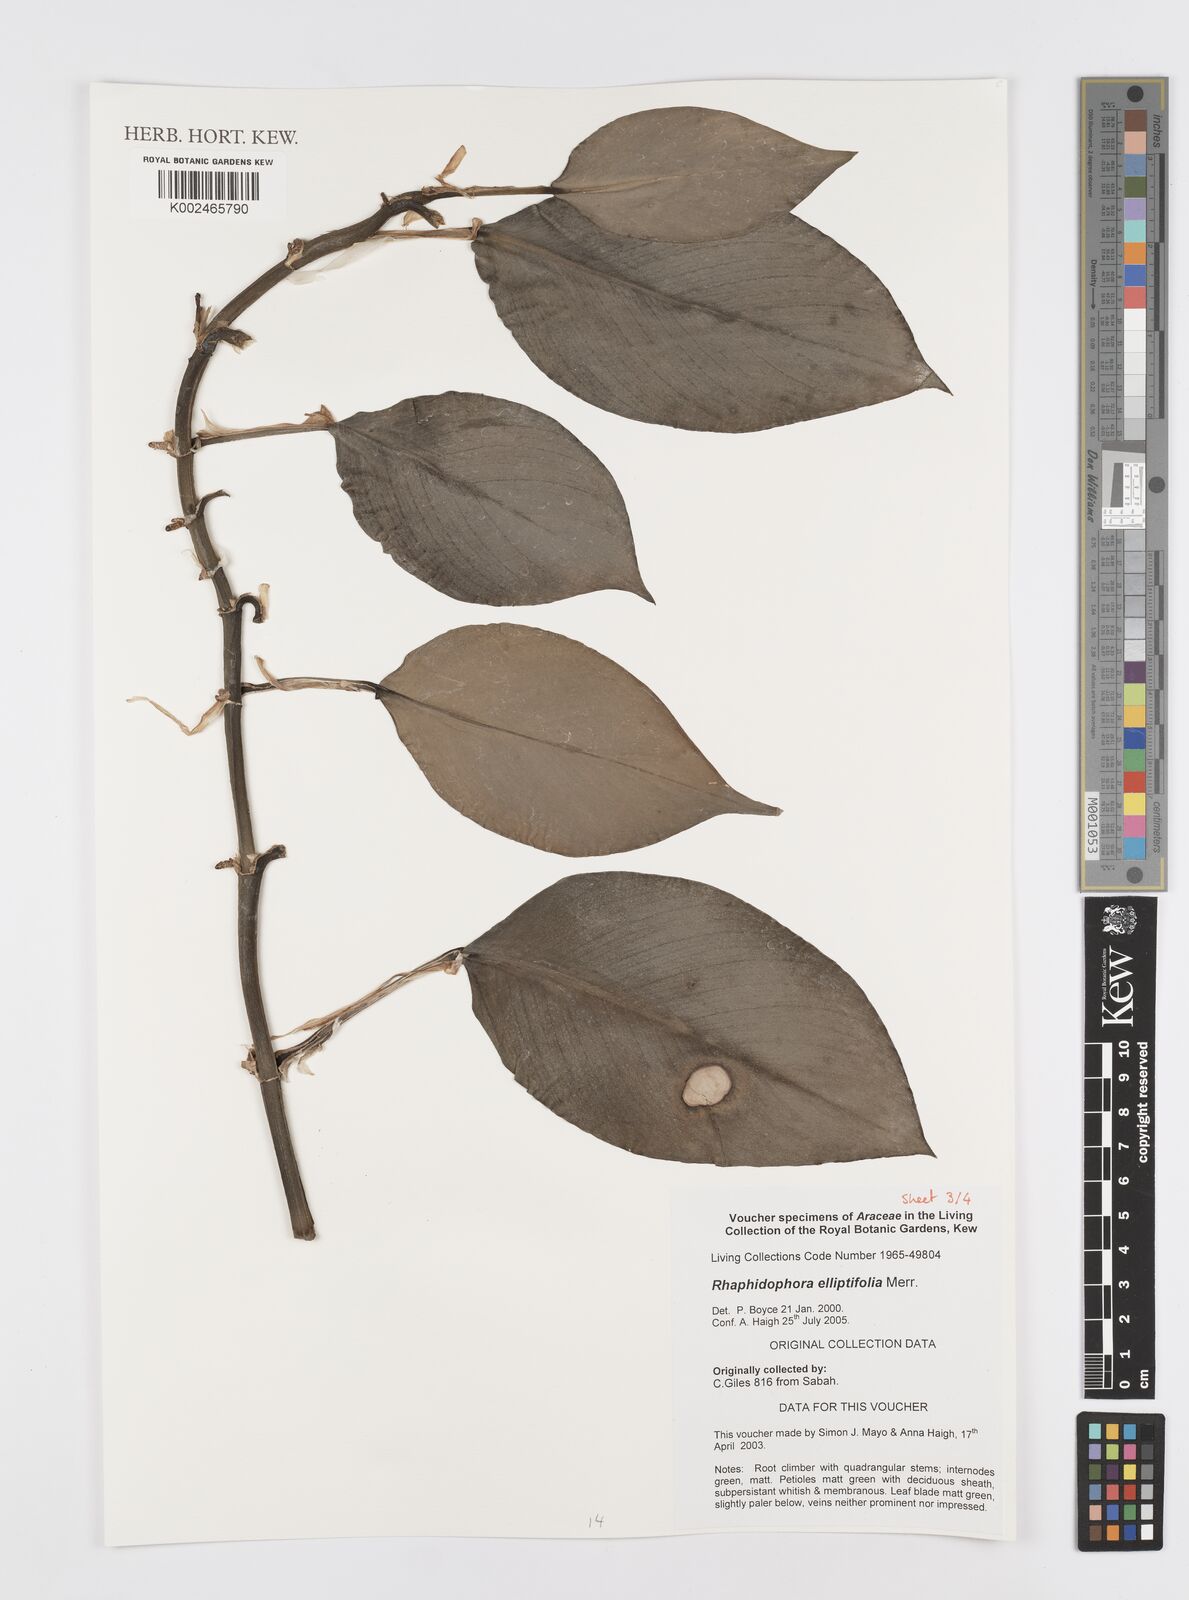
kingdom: Plantae
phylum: Tracheophyta
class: Liliopsida
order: Alismatales
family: Araceae
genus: Rhaphidophora
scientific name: Rhaphidophora elliptifolia
